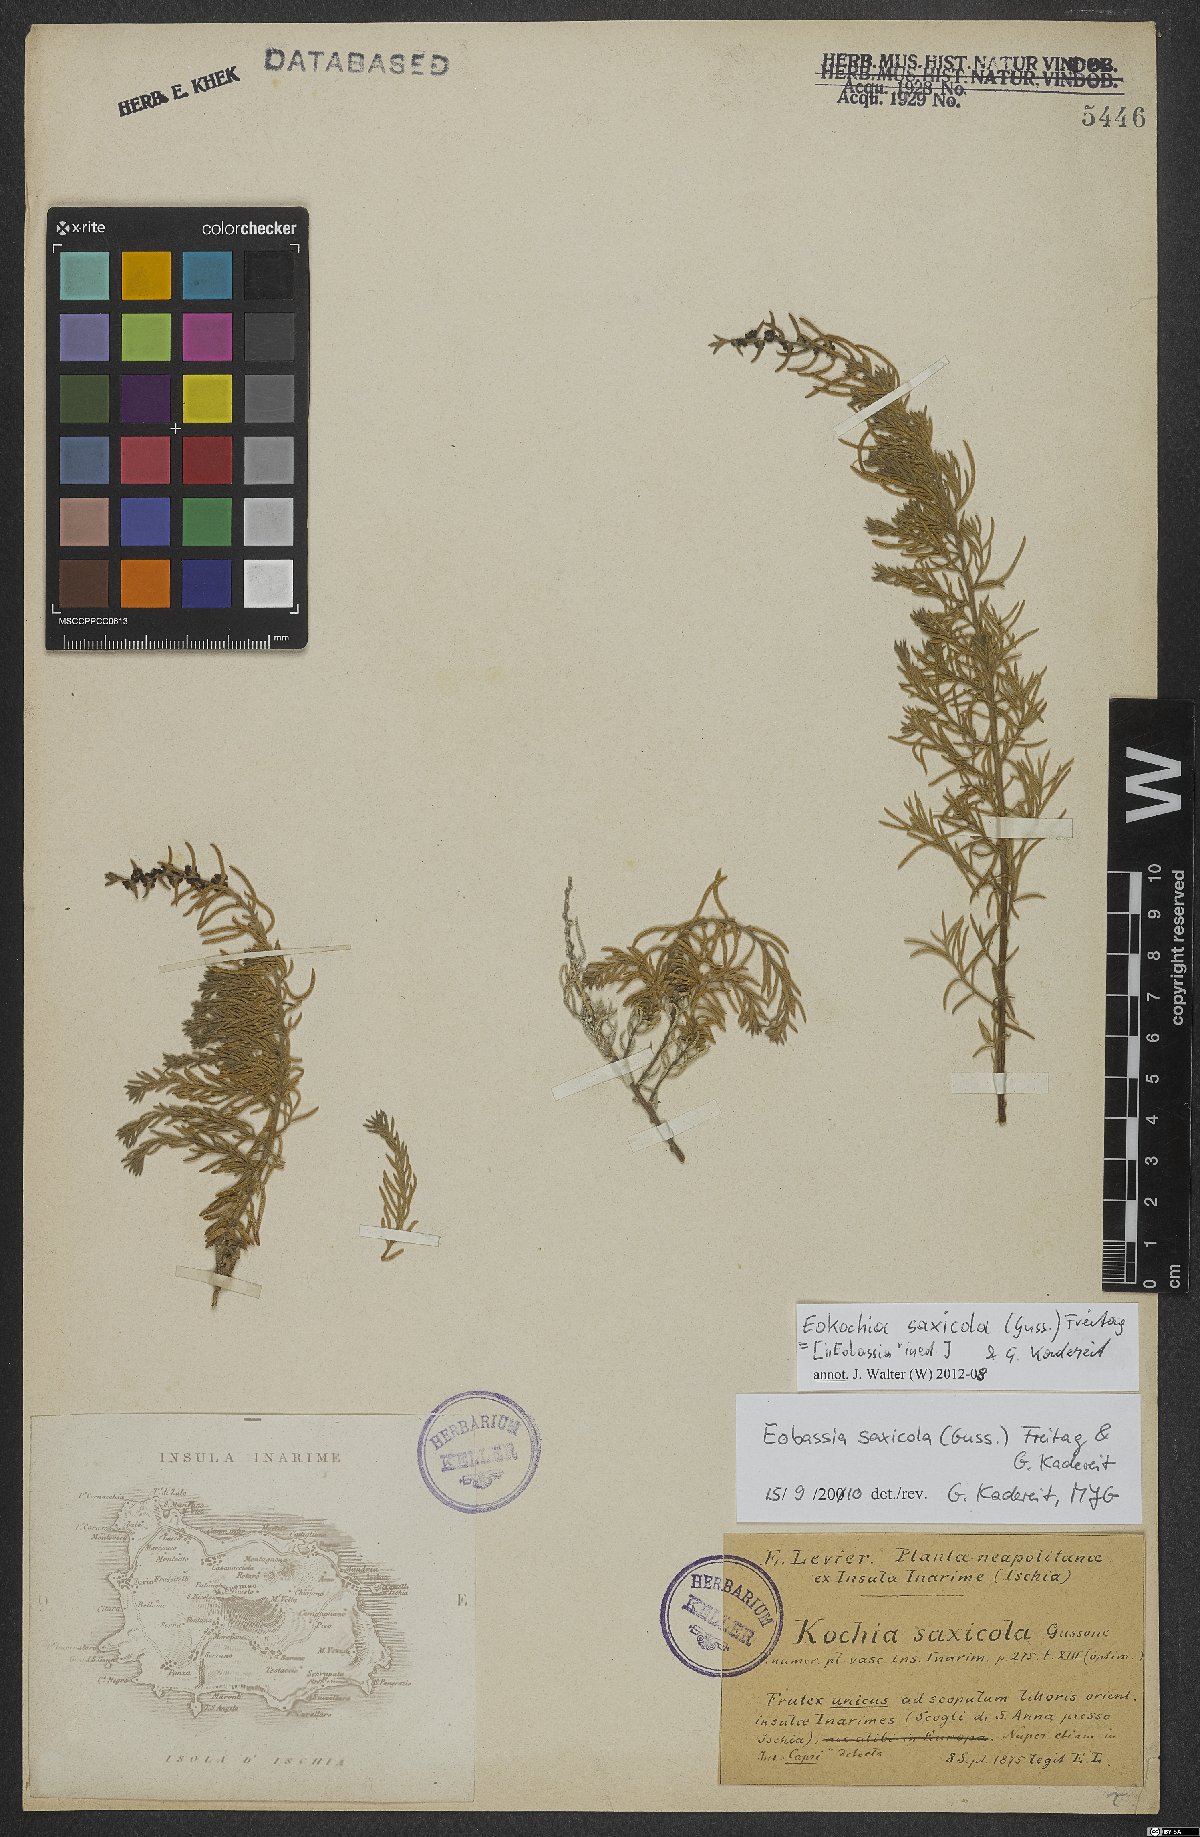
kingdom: Plantae
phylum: Tracheophyta
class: Magnoliopsida
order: Caryophyllales
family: Amaranthaceae
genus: Eokochia
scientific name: Eokochia saxicola
